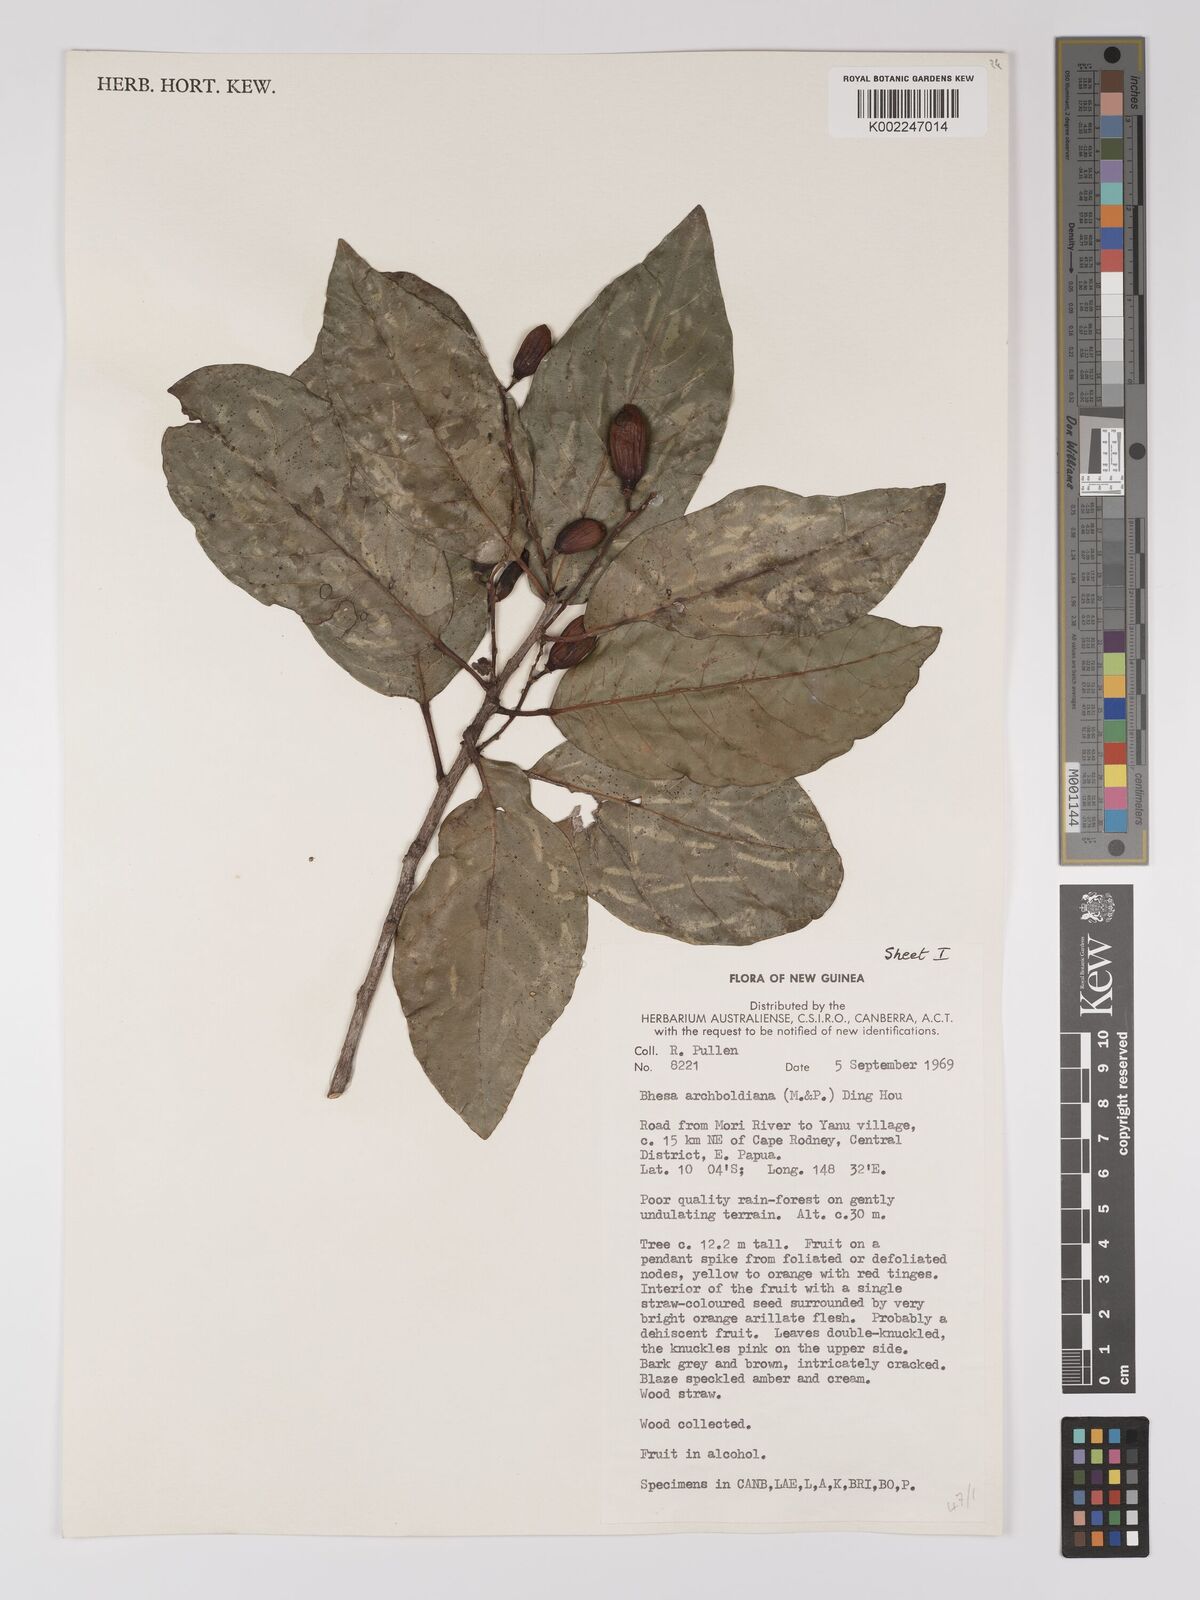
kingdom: Plantae
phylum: Tracheophyta
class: Magnoliopsida
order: Malpighiales
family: Centroplacaceae
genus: Bhesa
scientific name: Bhesa archboldiana
